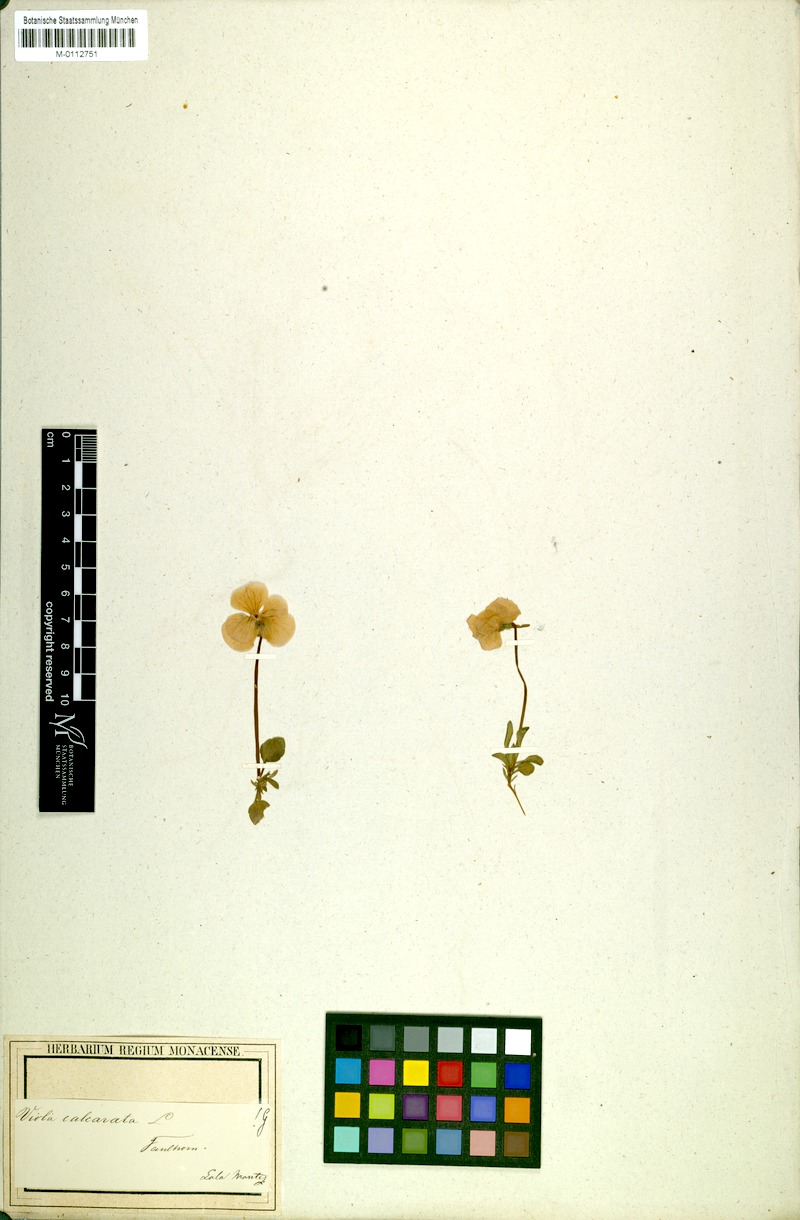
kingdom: Plantae
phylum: Tracheophyta
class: Magnoliopsida
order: Malpighiales
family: Violaceae
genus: Viola
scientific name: Viola calcarata
